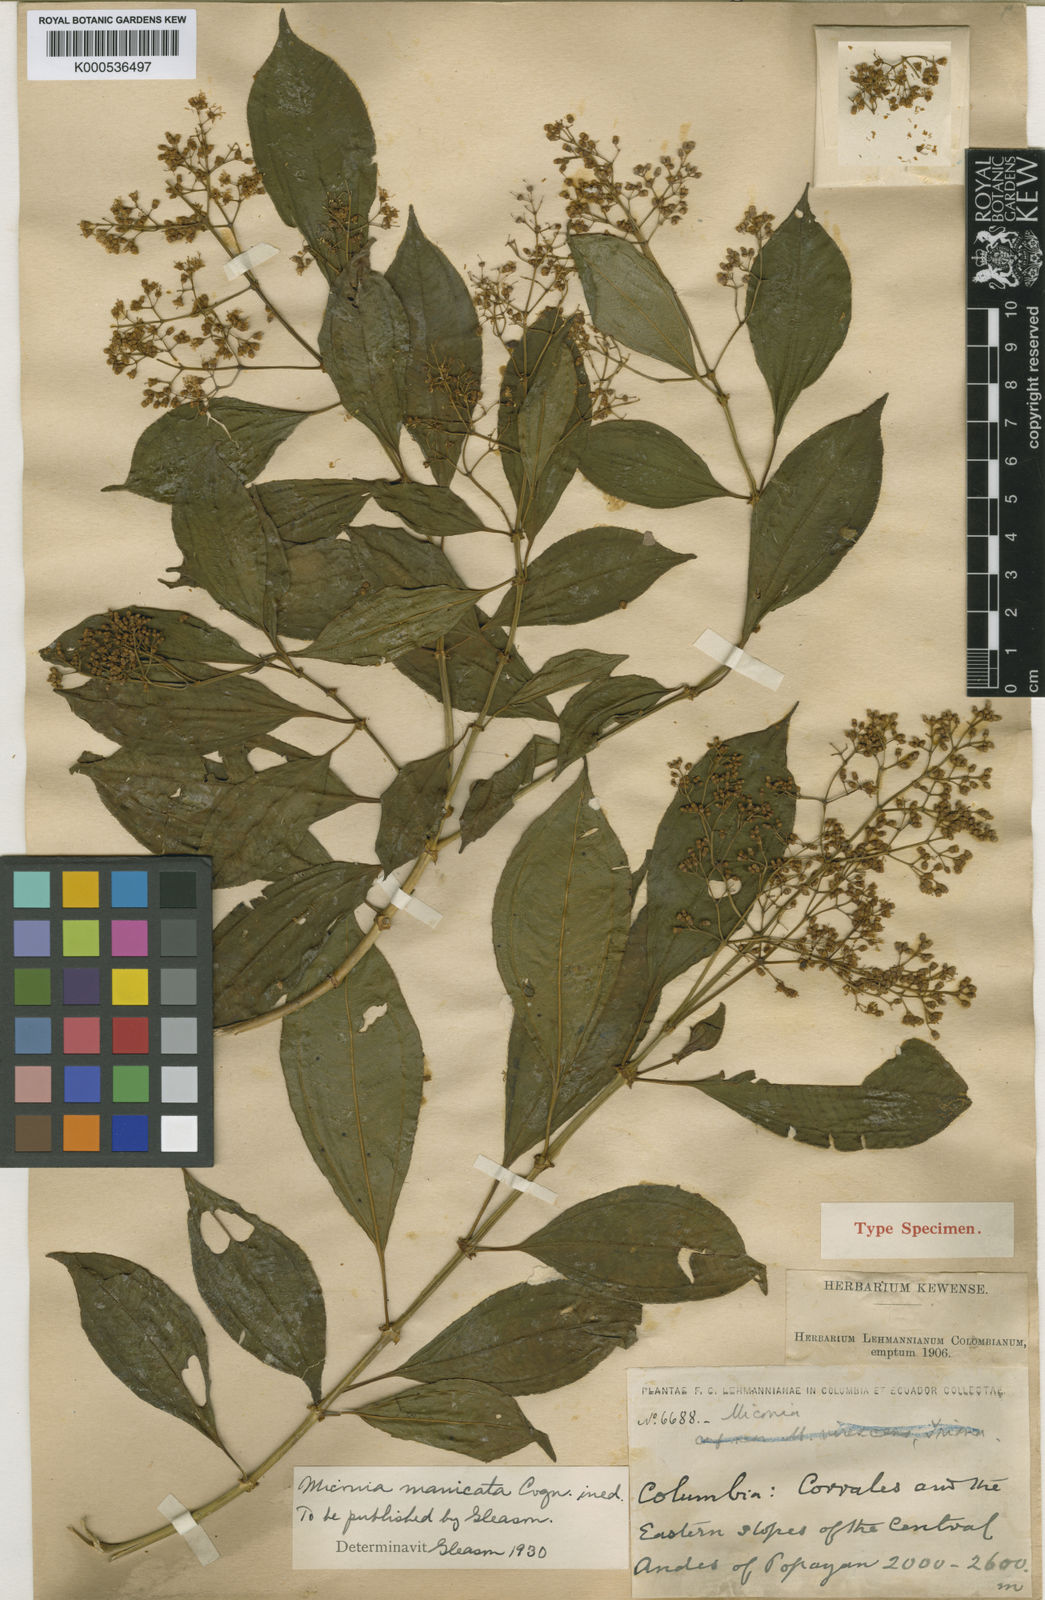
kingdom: Plantae
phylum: Tracheophyta
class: Magnoliopsida
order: Myrtales
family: Melastomataceae
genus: Miconia
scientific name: Miconia manicata
